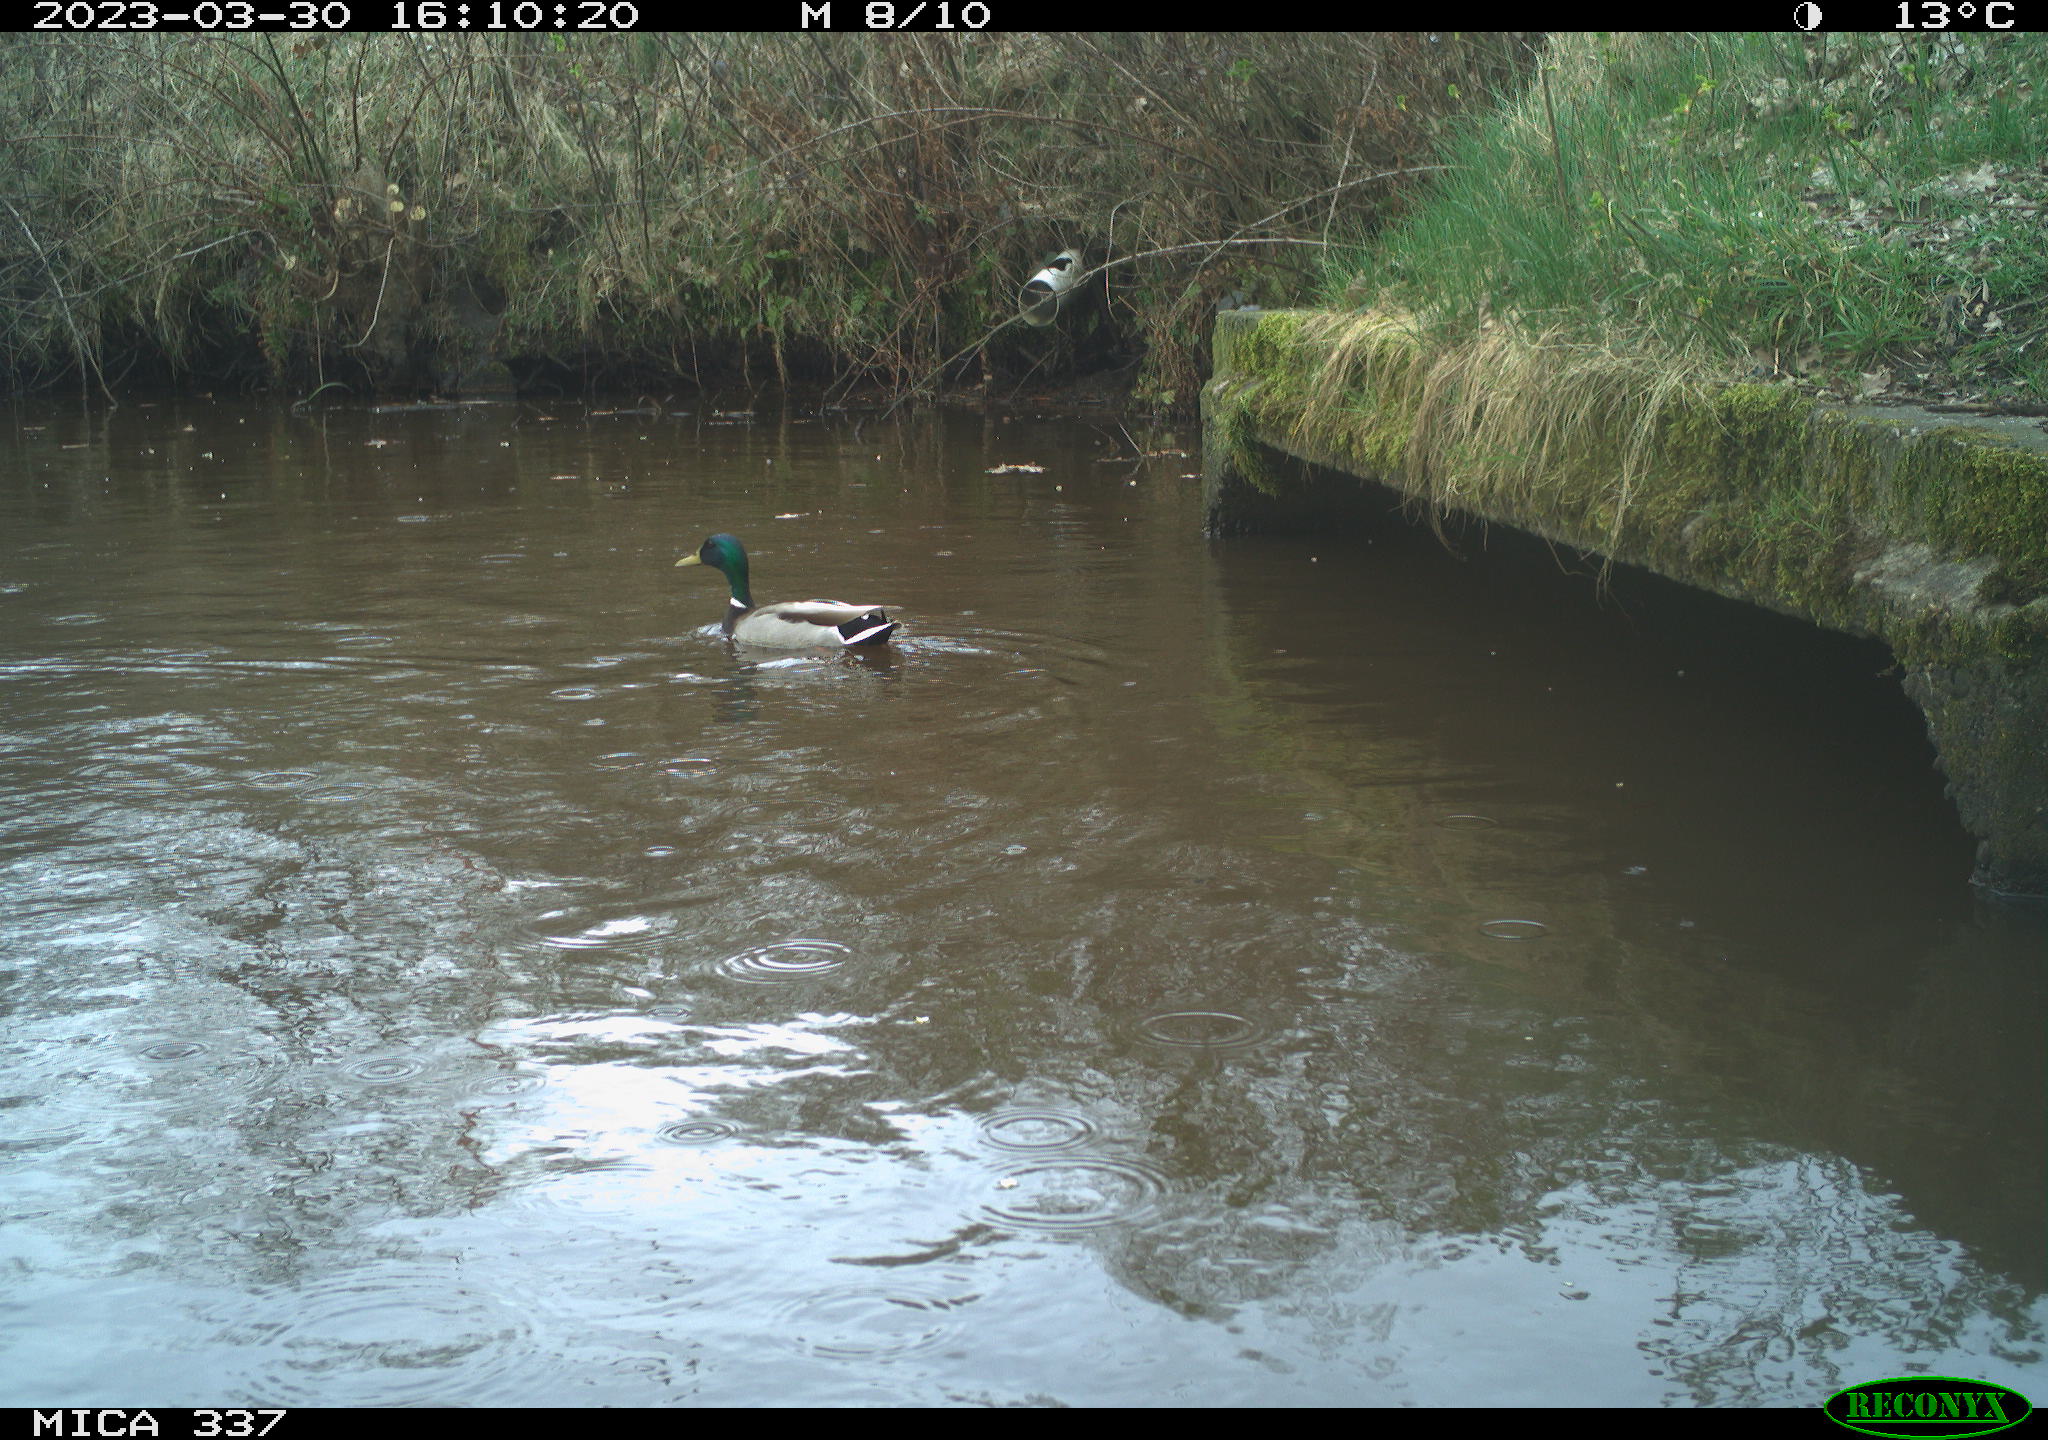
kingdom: Animalia
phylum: Chordata
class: Aves
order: Anseriformes
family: Anatidae
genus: Anas
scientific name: Anas
